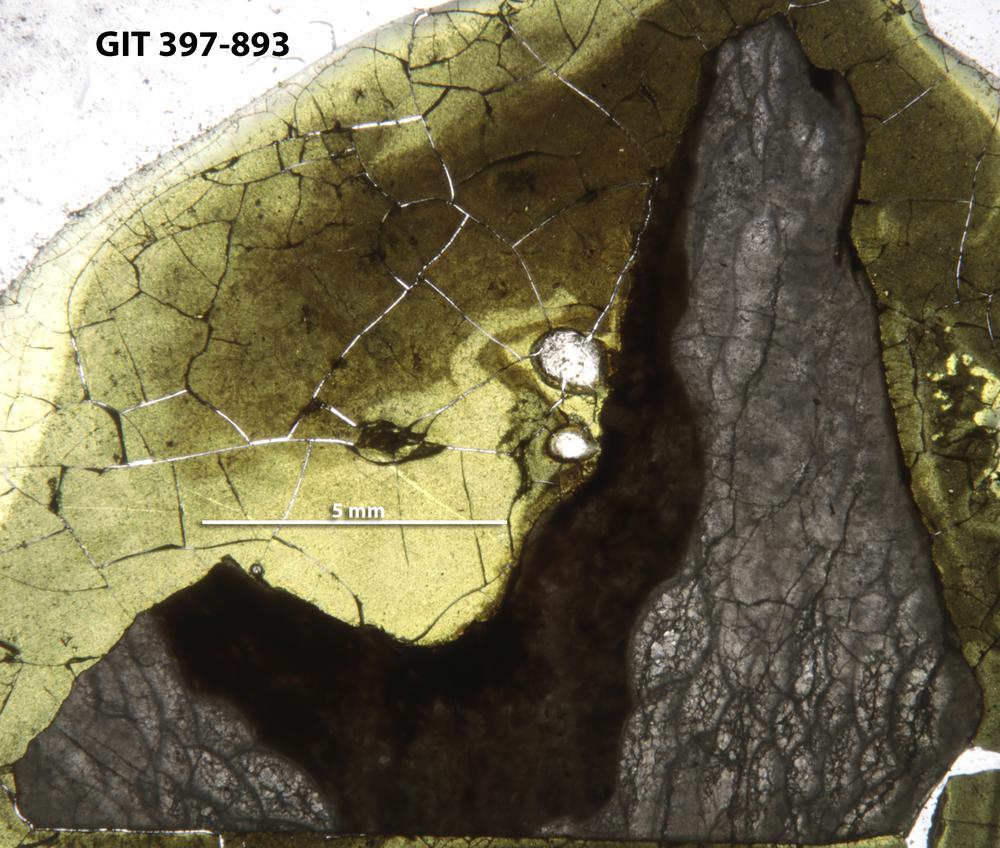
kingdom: Animalia
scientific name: Animalia
